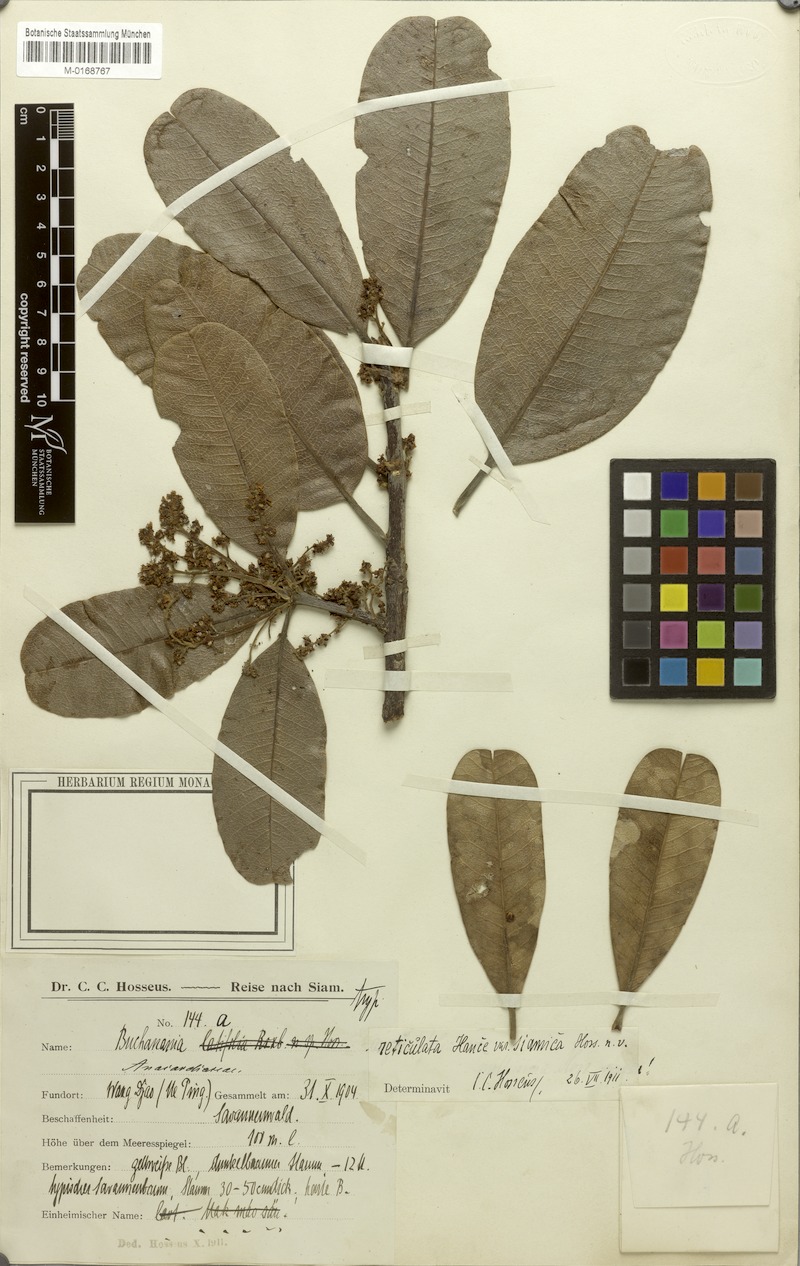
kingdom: Plantae
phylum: Tracheophyta
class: Magnoliopsida
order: Sapindales
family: Anacardiaceae
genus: Buchanania
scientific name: Buchanania reticulata
